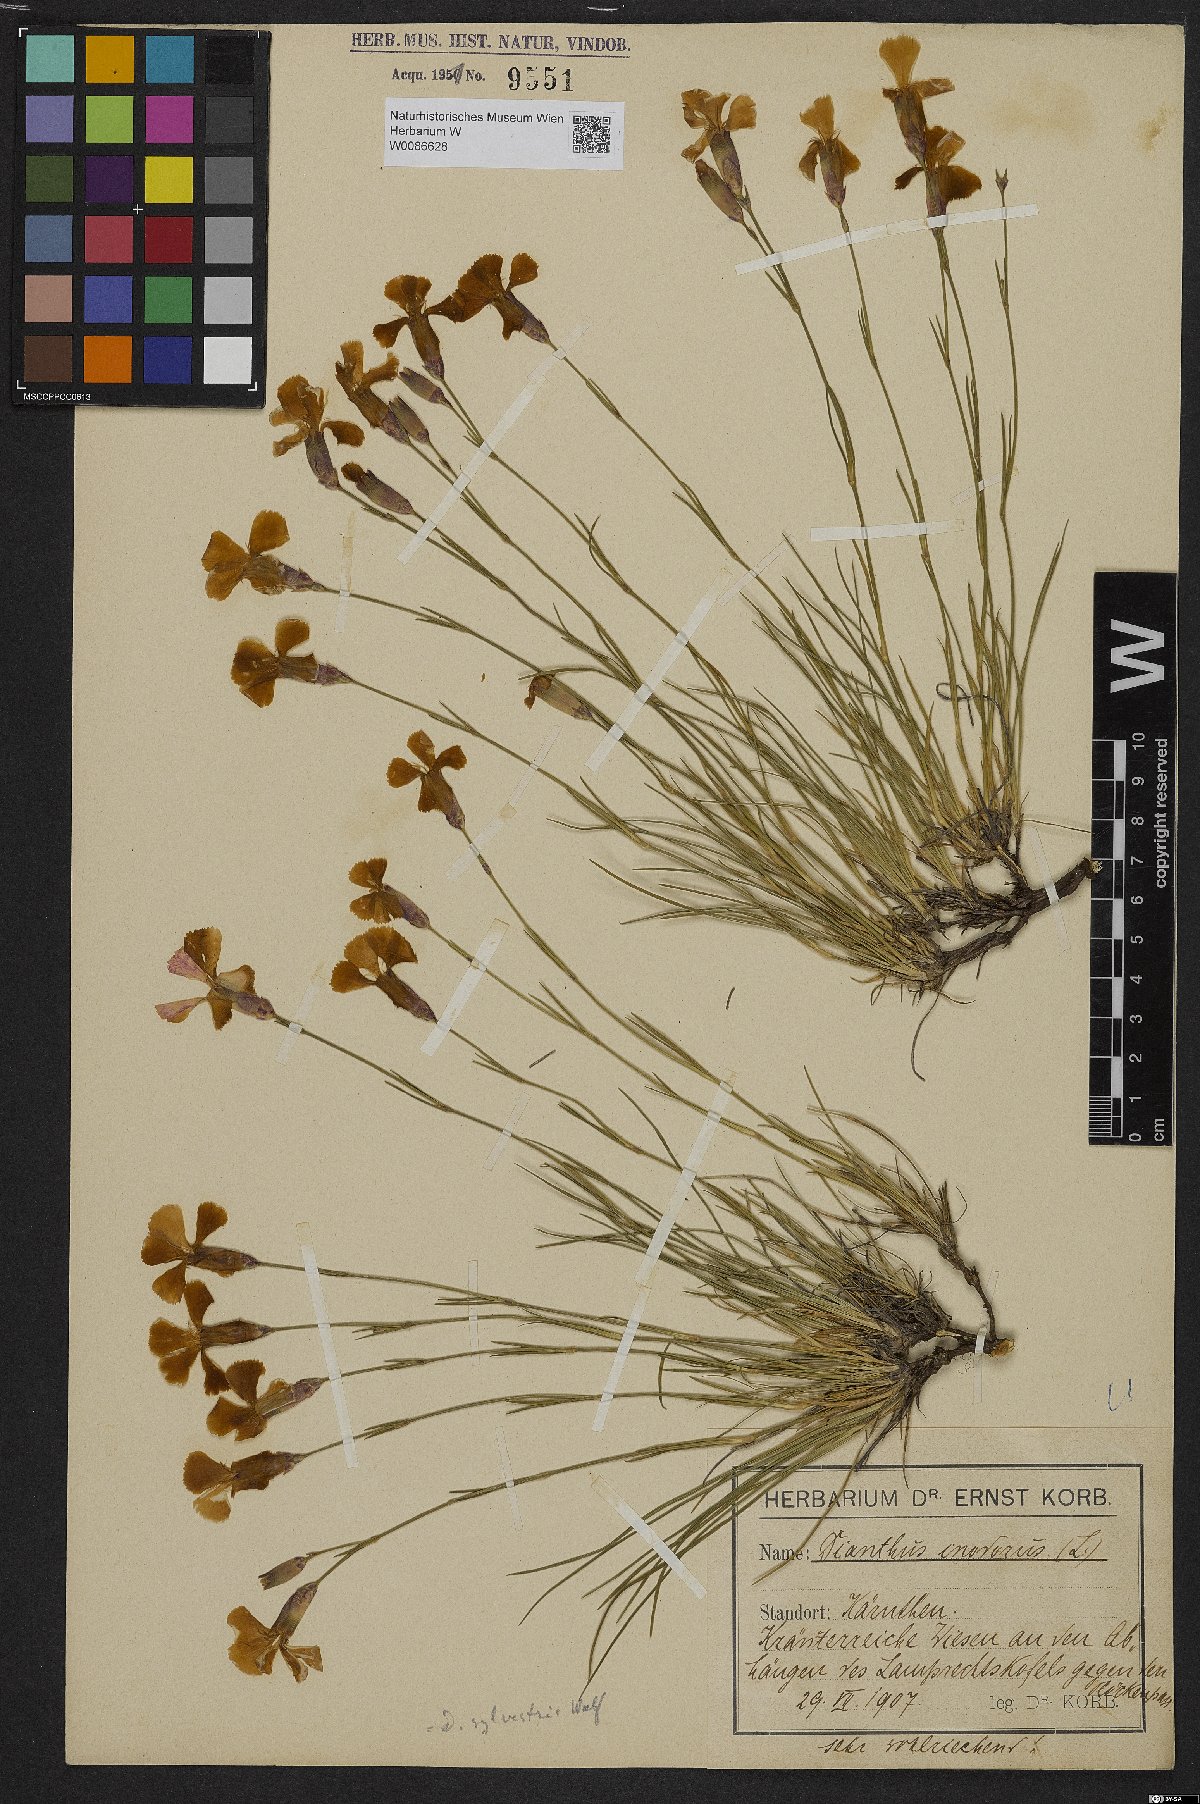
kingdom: Plantae
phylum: Tracheophyta
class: Magnoliopsida
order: Caryophyllales
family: Caryophyllaceae
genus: Dianthus
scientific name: Dianthus sylvestris
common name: Wood pink
